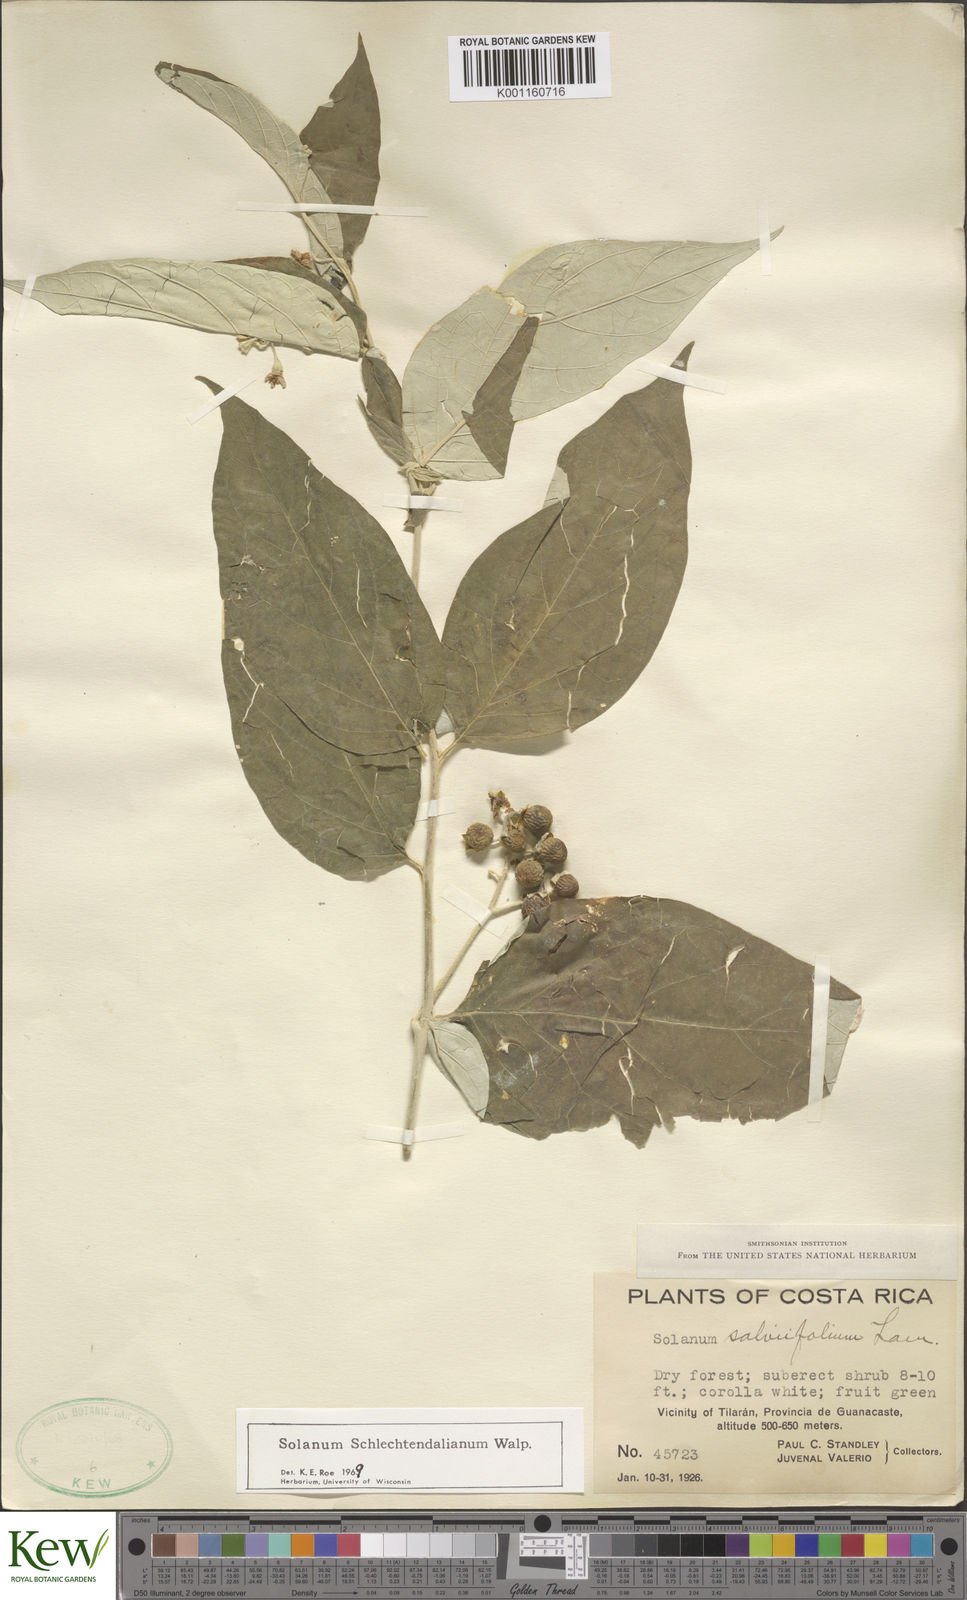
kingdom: Plantae
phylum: Tracheophyta
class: Magnoliopsida
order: Solanales
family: Solanaceae
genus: Solanum
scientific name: Solanum schlechtendalianum
